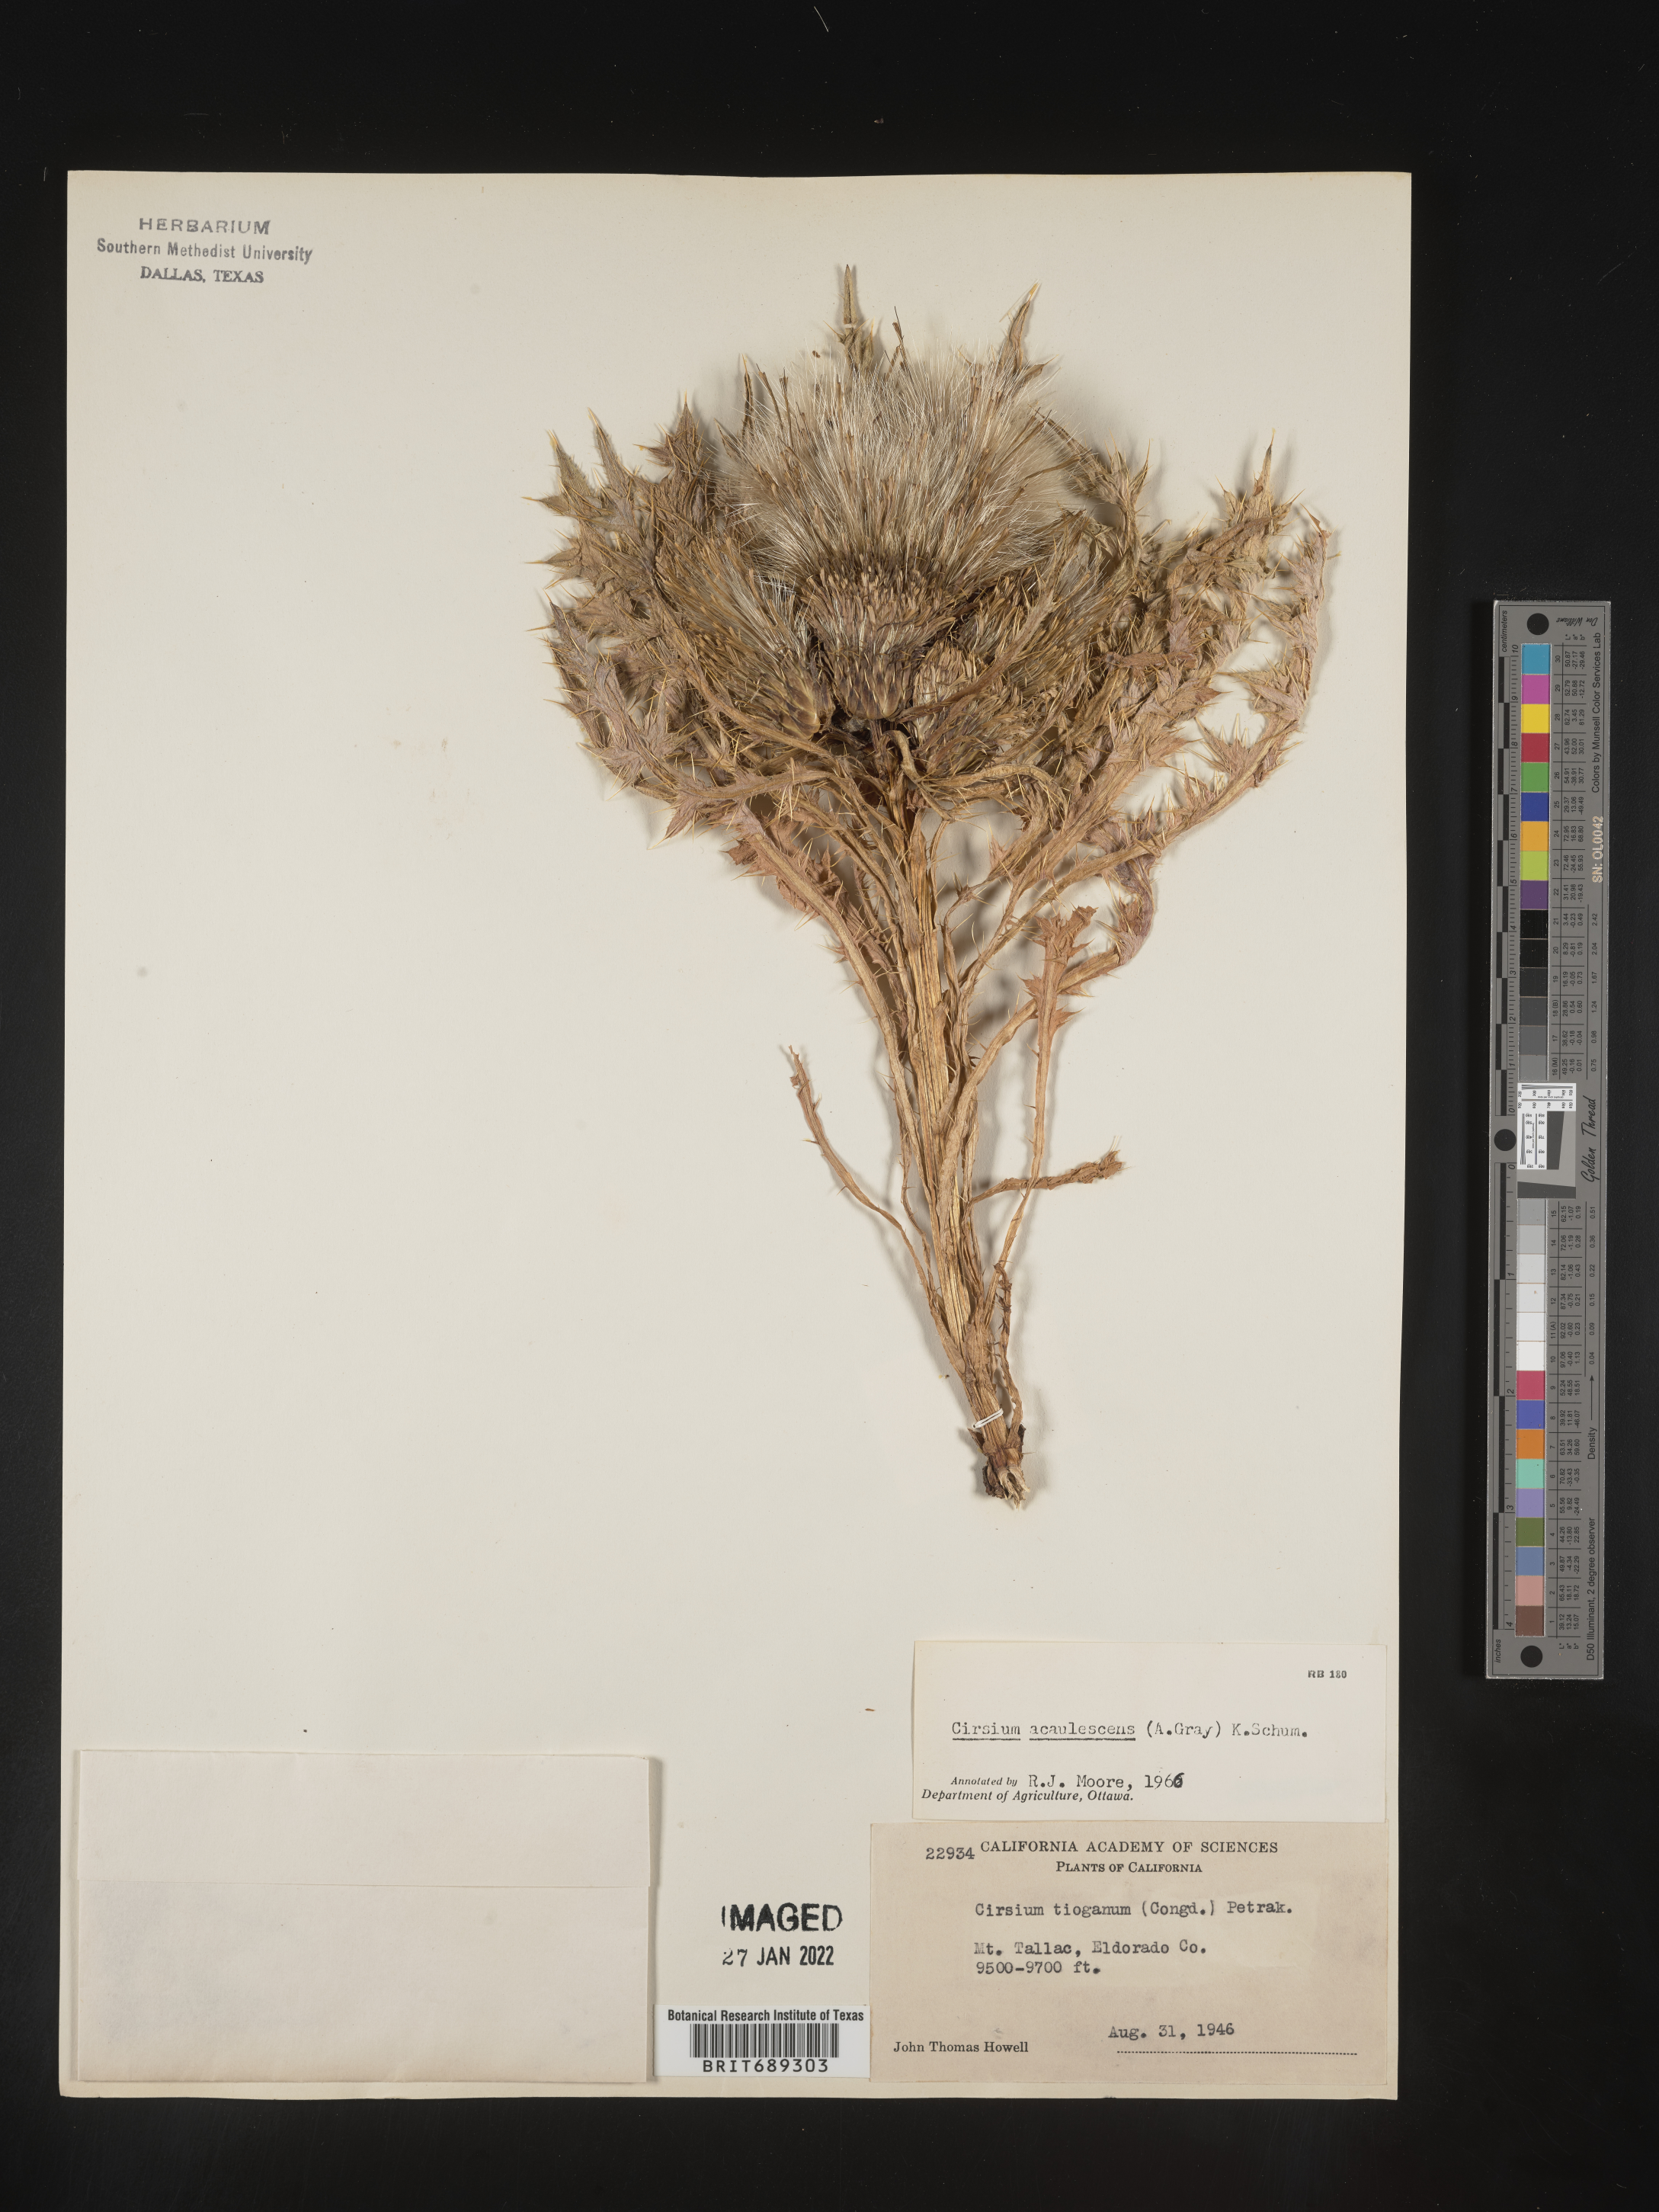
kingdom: Plantae
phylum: Tracheophyta
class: Magnoliopsida
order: Asterales
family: Asteraceae
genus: Cirsium
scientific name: Cirsium
